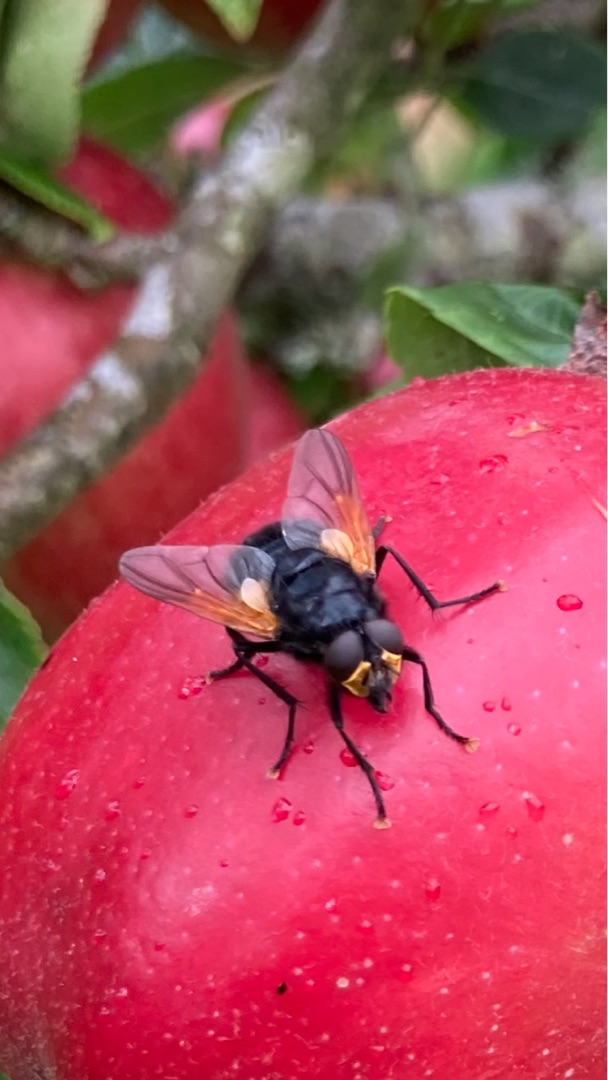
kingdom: Animalia
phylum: Arthropoda
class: Insecta
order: Diptera
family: Muscidae
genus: Mesembrina
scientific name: Mesembrina meridiana
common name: Gulvinget flue
